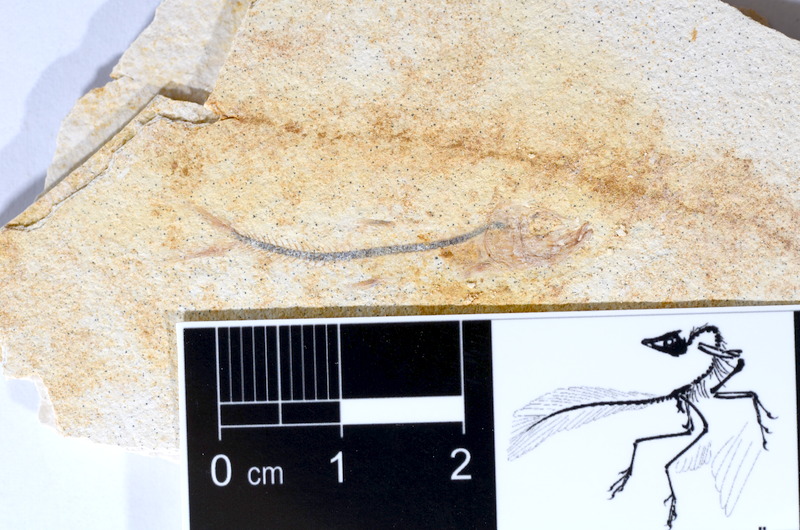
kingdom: Animalia
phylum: Chordata
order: Salmoniformes
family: Orthogonikleithridae
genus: Orthogonikleithrus
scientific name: Orthogonikleithrus hoelli
